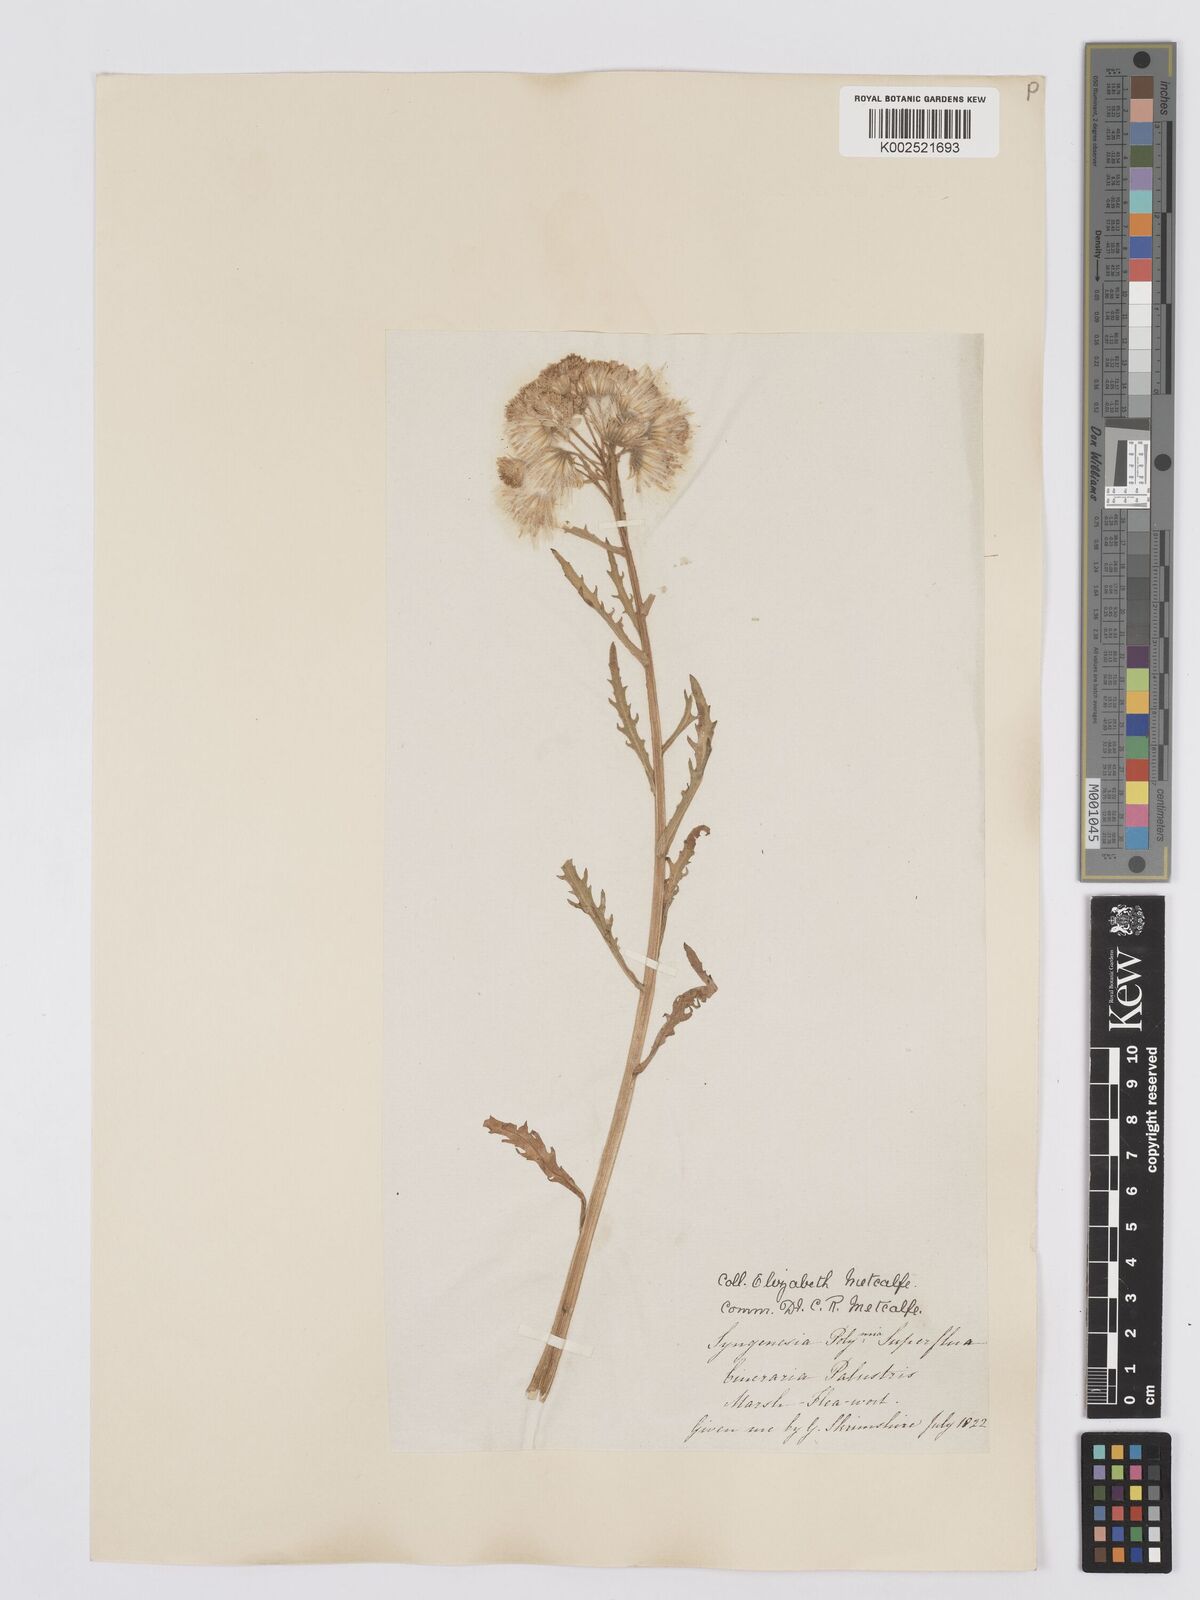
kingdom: Plantae
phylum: Tracheophyta
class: Magnoliopsida
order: Asterales
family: Asteraceae
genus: Tephroseris
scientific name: Tephroseris palustris
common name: Marsh fleawort
